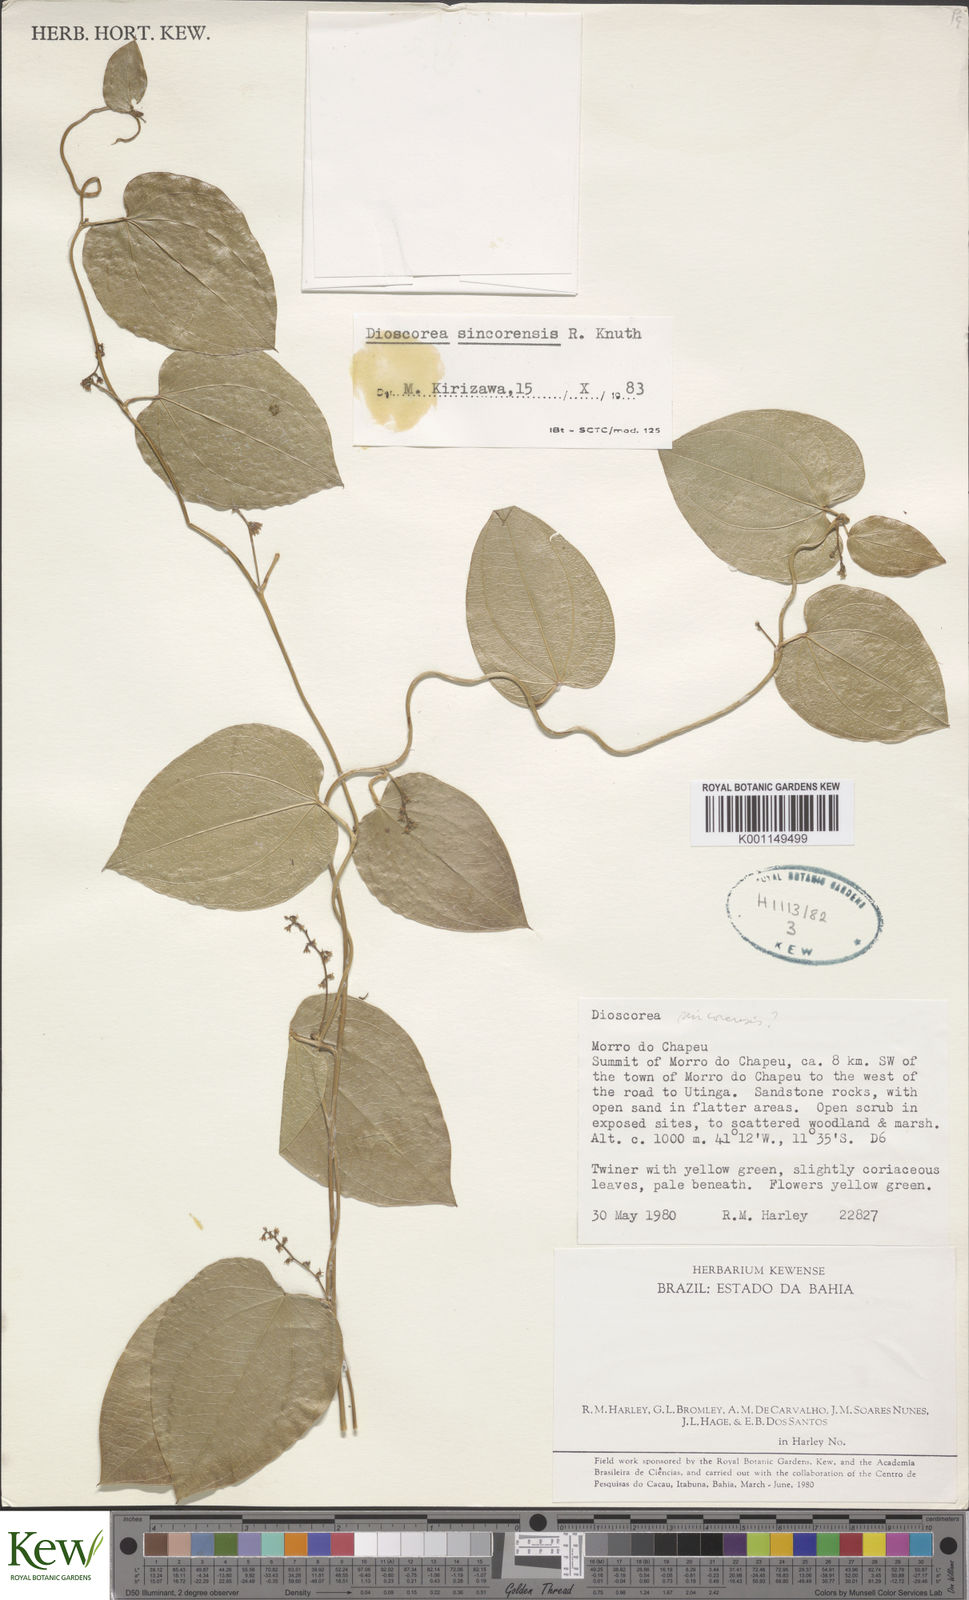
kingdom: Plantae
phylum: Tracheophyta
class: Liliopsida
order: Dioscoreales
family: Dioscoreaceae
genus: Dioscorea
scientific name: Dioscorea sincorensis
